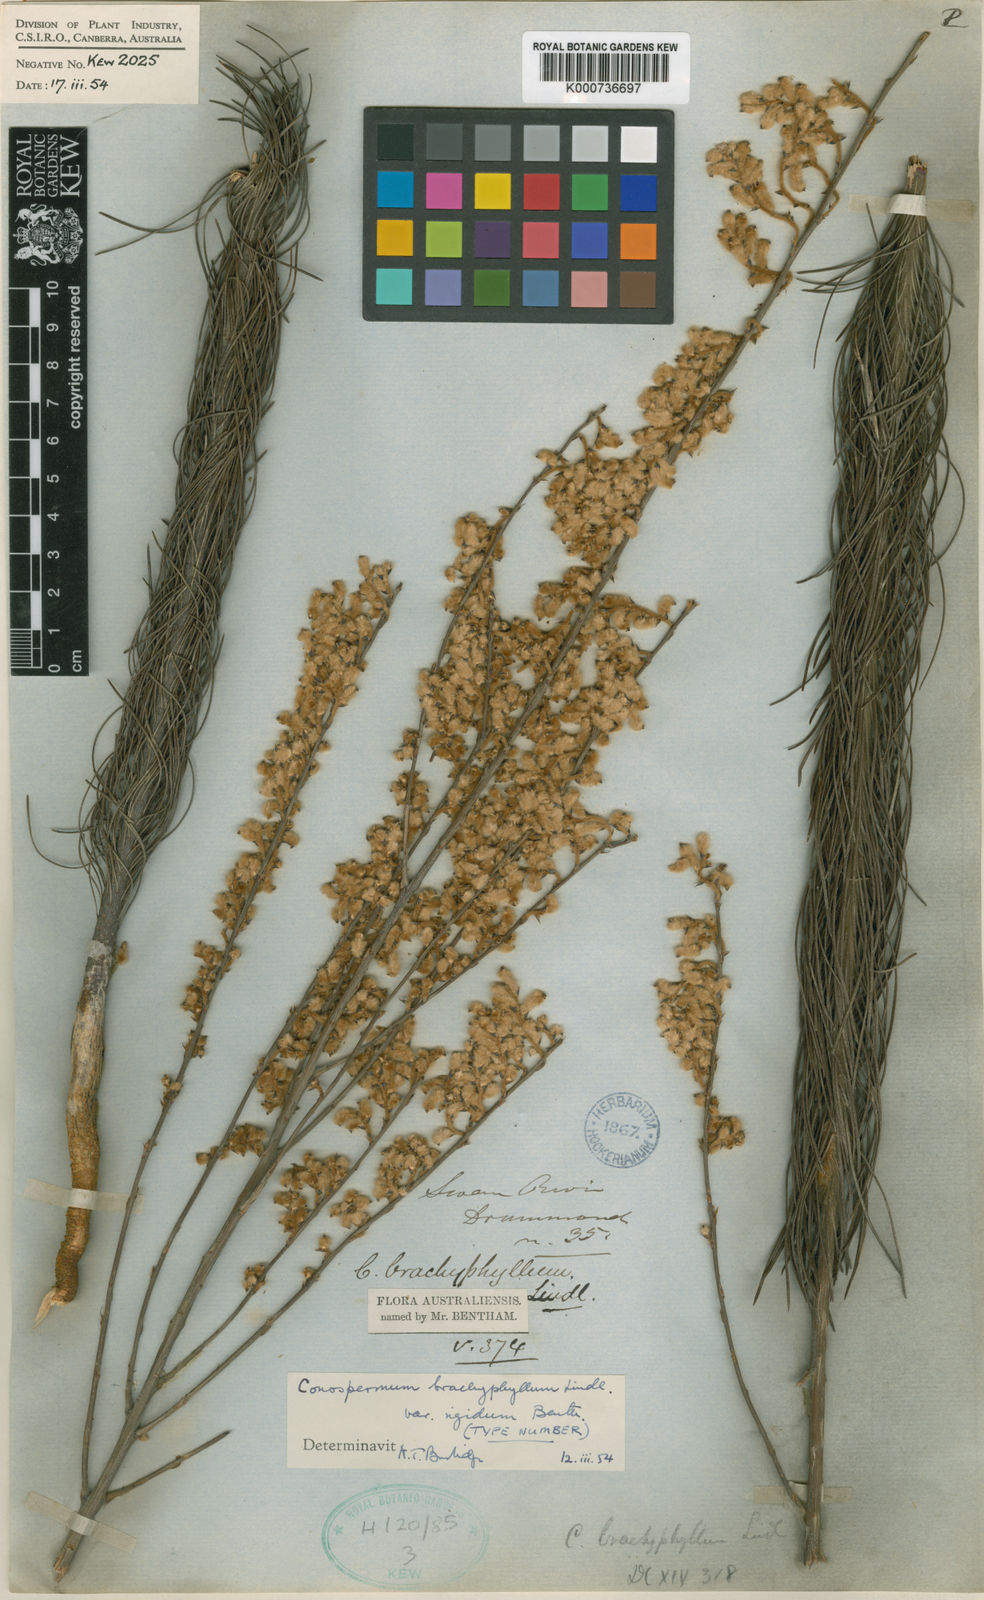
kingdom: Plantae
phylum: Tracheophyta
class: Magnoliopsida
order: Proteales
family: Proteaceae
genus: Conospermum
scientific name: Conospermum brachyphyllum
